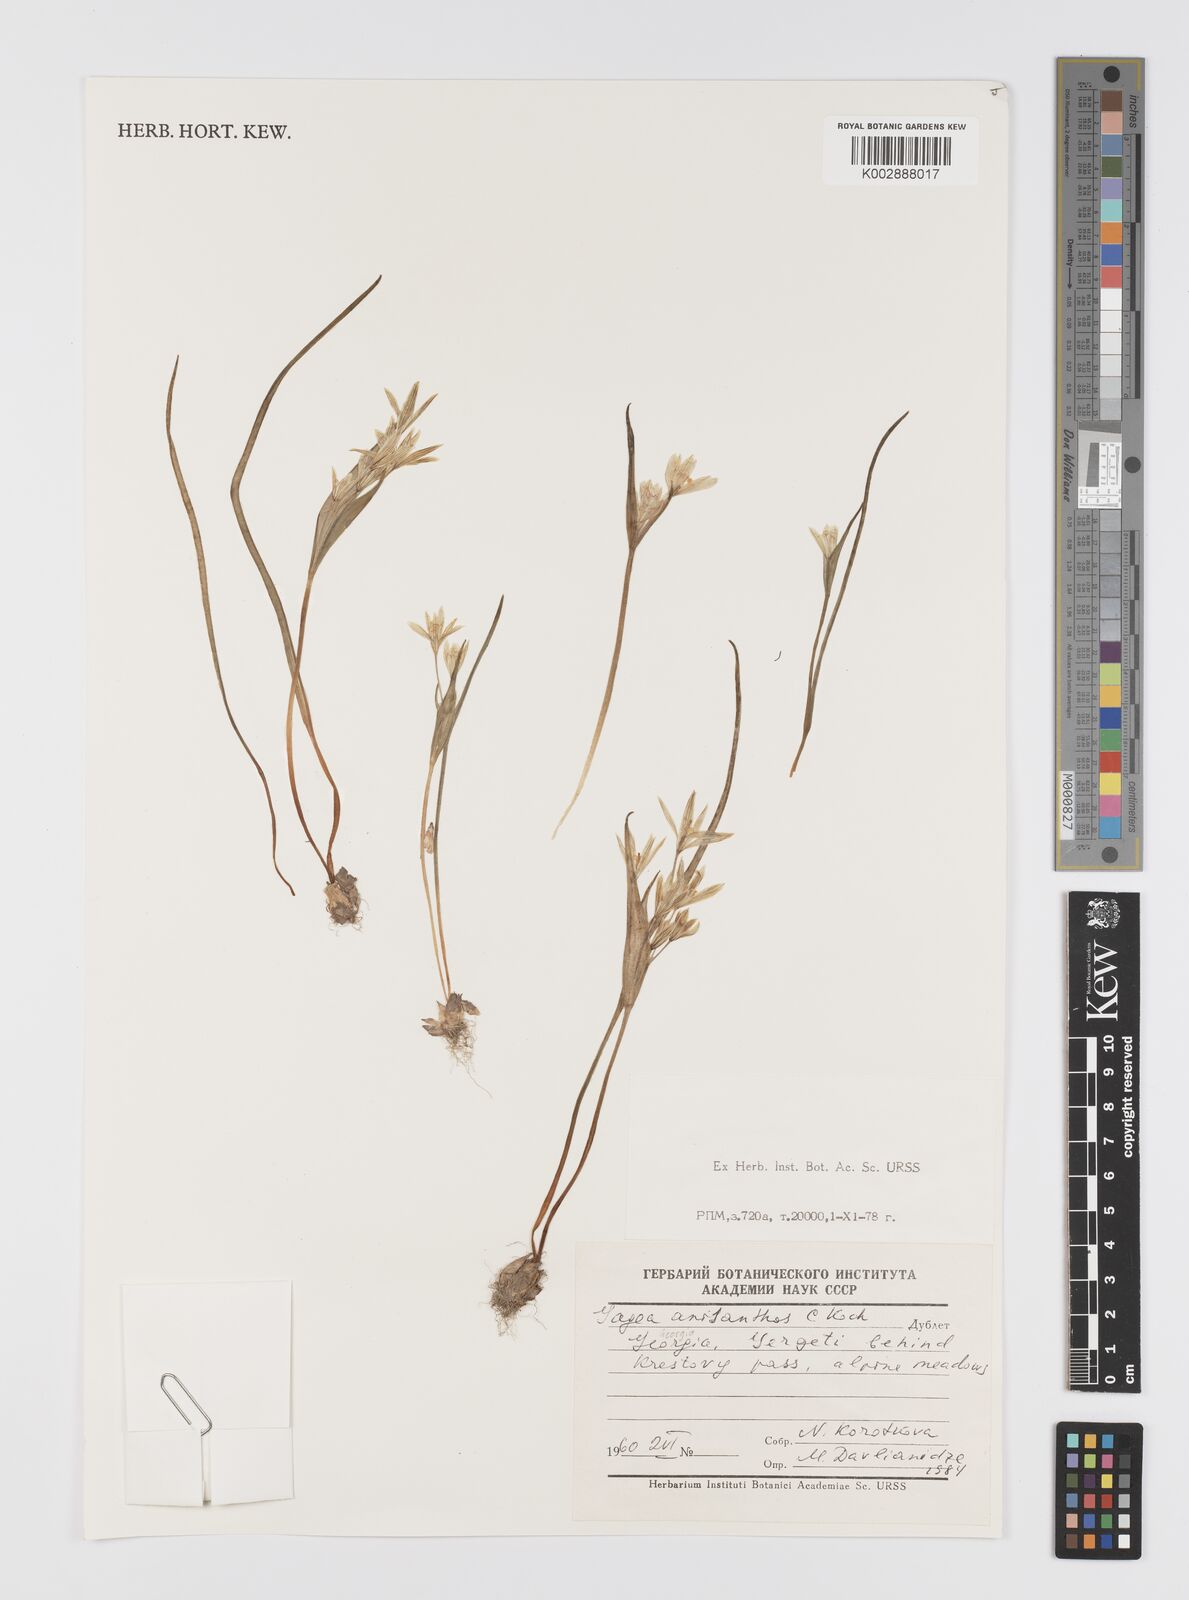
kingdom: Plantae
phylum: Tracheophyta
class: Liliopsida
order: Liliales
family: Liliaceae
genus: Gagea
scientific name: Gagea fragifera
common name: Lily
